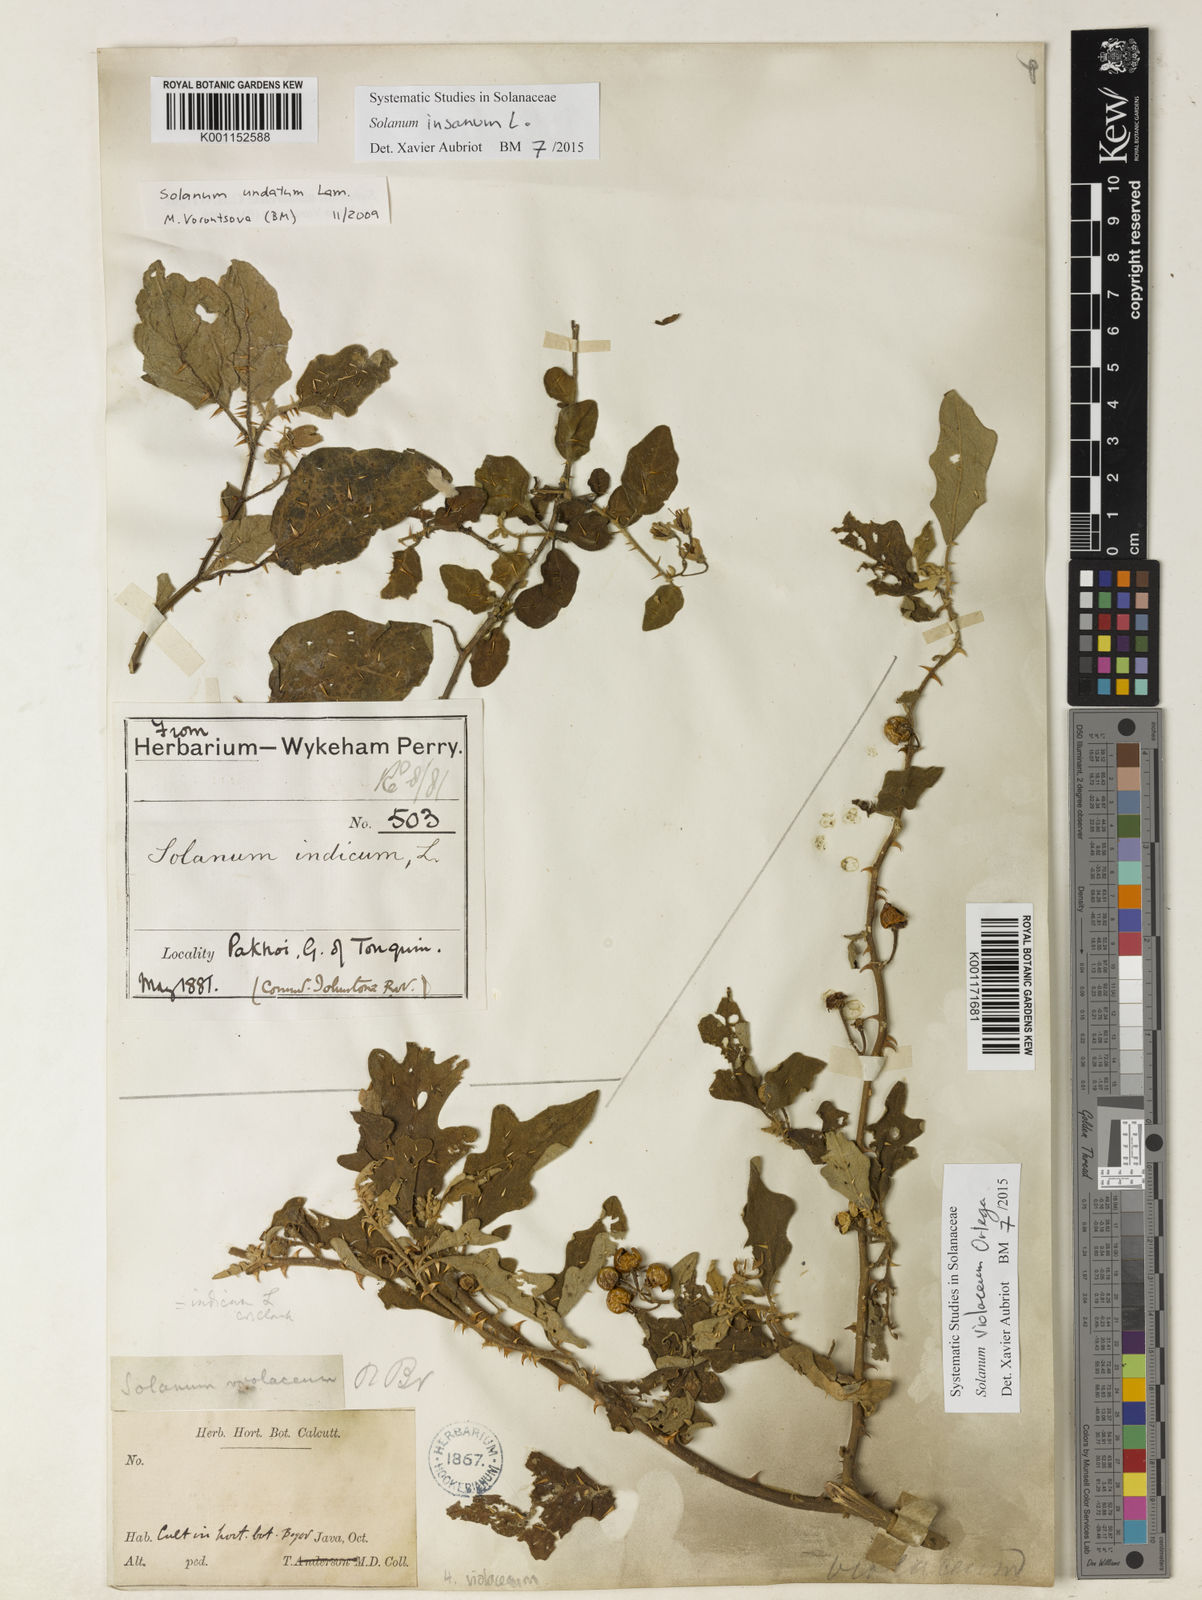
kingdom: Plantae
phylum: Tracheophyta
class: Magnoliopsida
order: Solanales
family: Solanaceae
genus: Solanum
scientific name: Solanum violaceum
